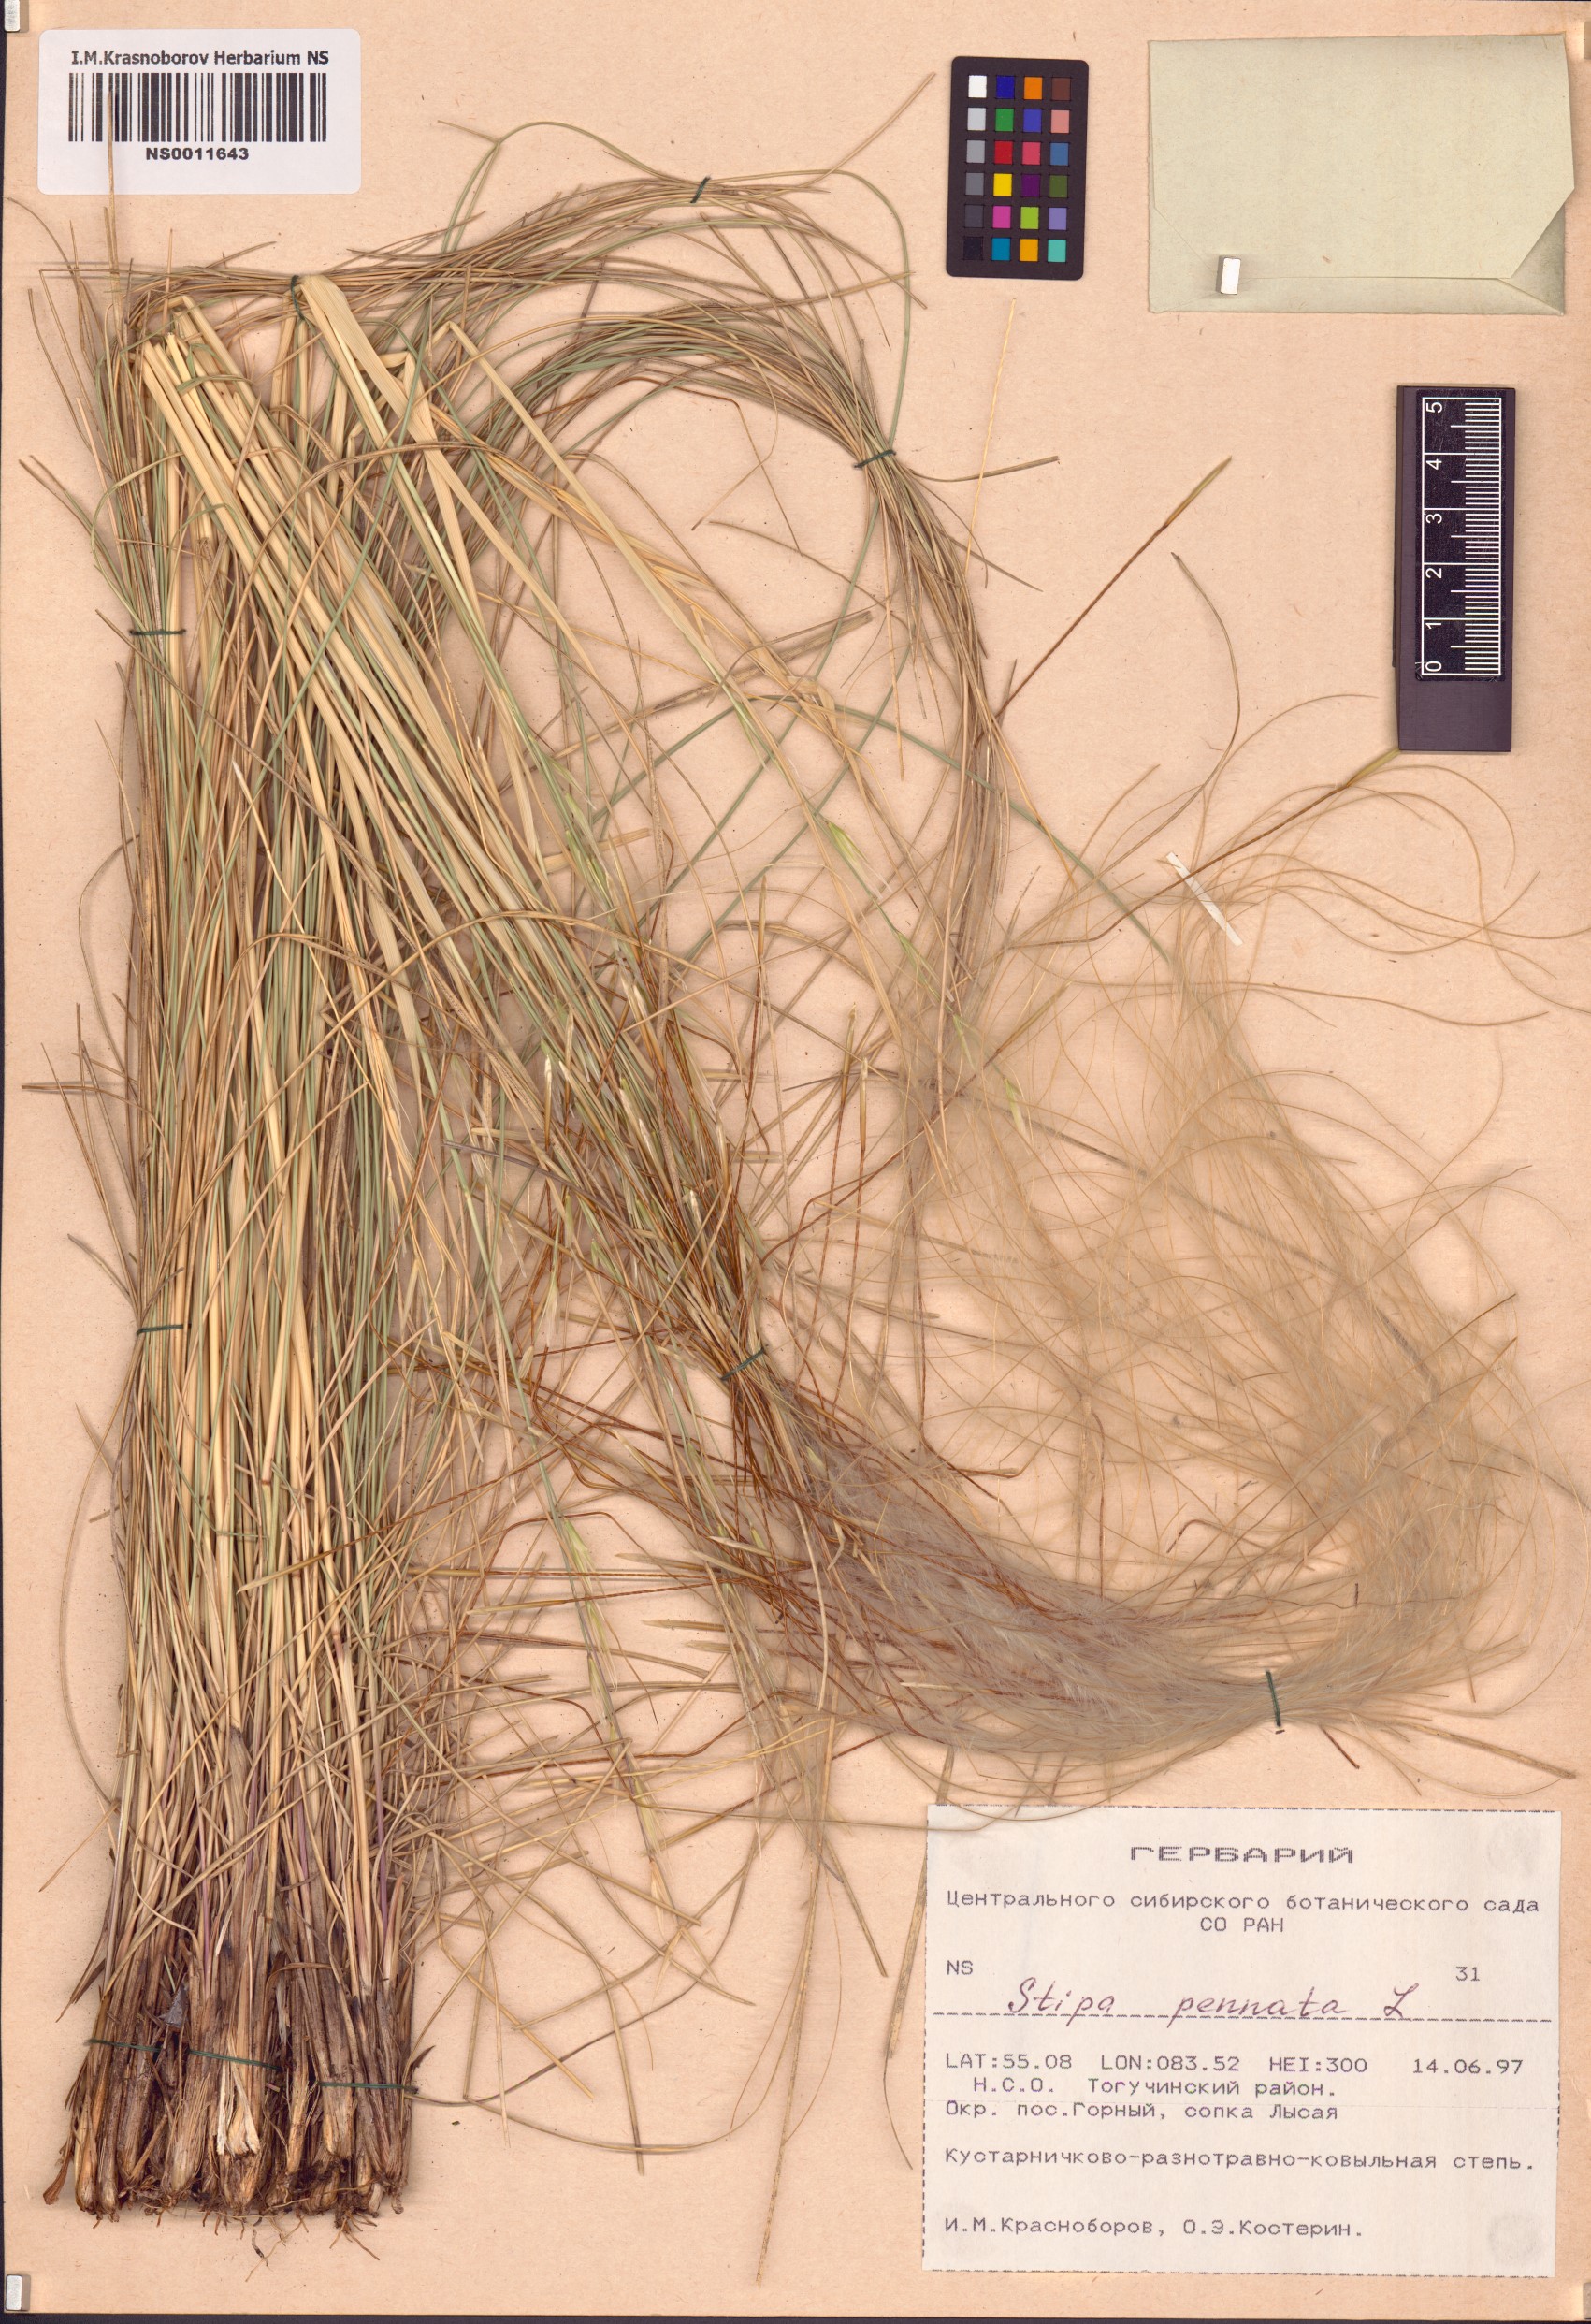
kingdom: Plantae
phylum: Tracheophyta
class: Liliopsida
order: Poales
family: Poaceae
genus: Stipa
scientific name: Stipa pennata
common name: European feather grass
